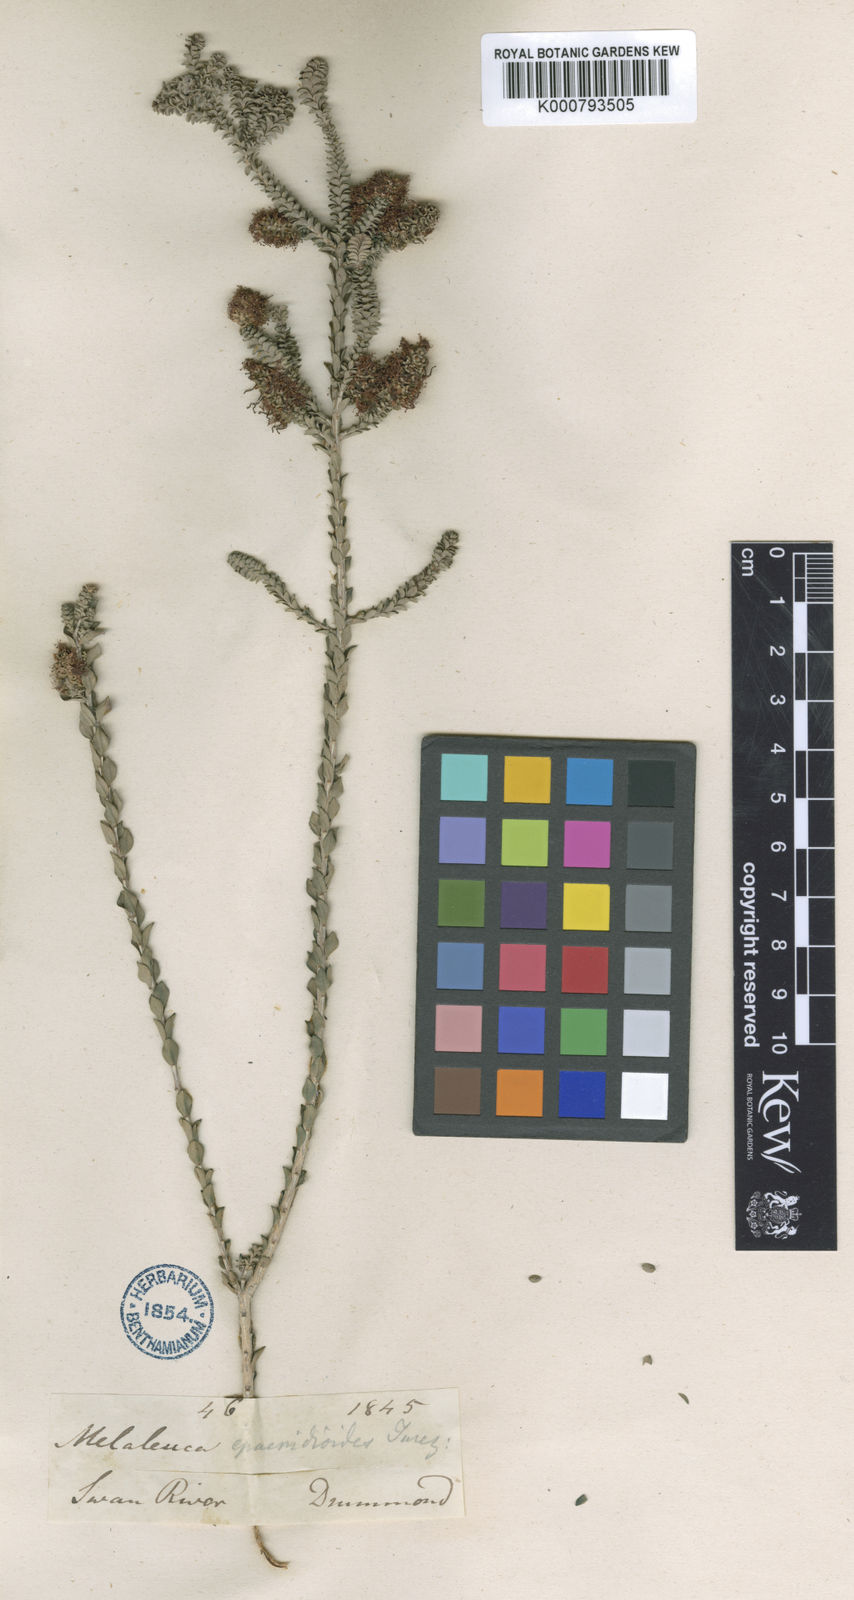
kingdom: Plantae
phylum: Tracheophyta
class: Magnoliopsida
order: Myrtales
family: Myrtaceae
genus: Melaleuca
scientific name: Melaleuca densa
